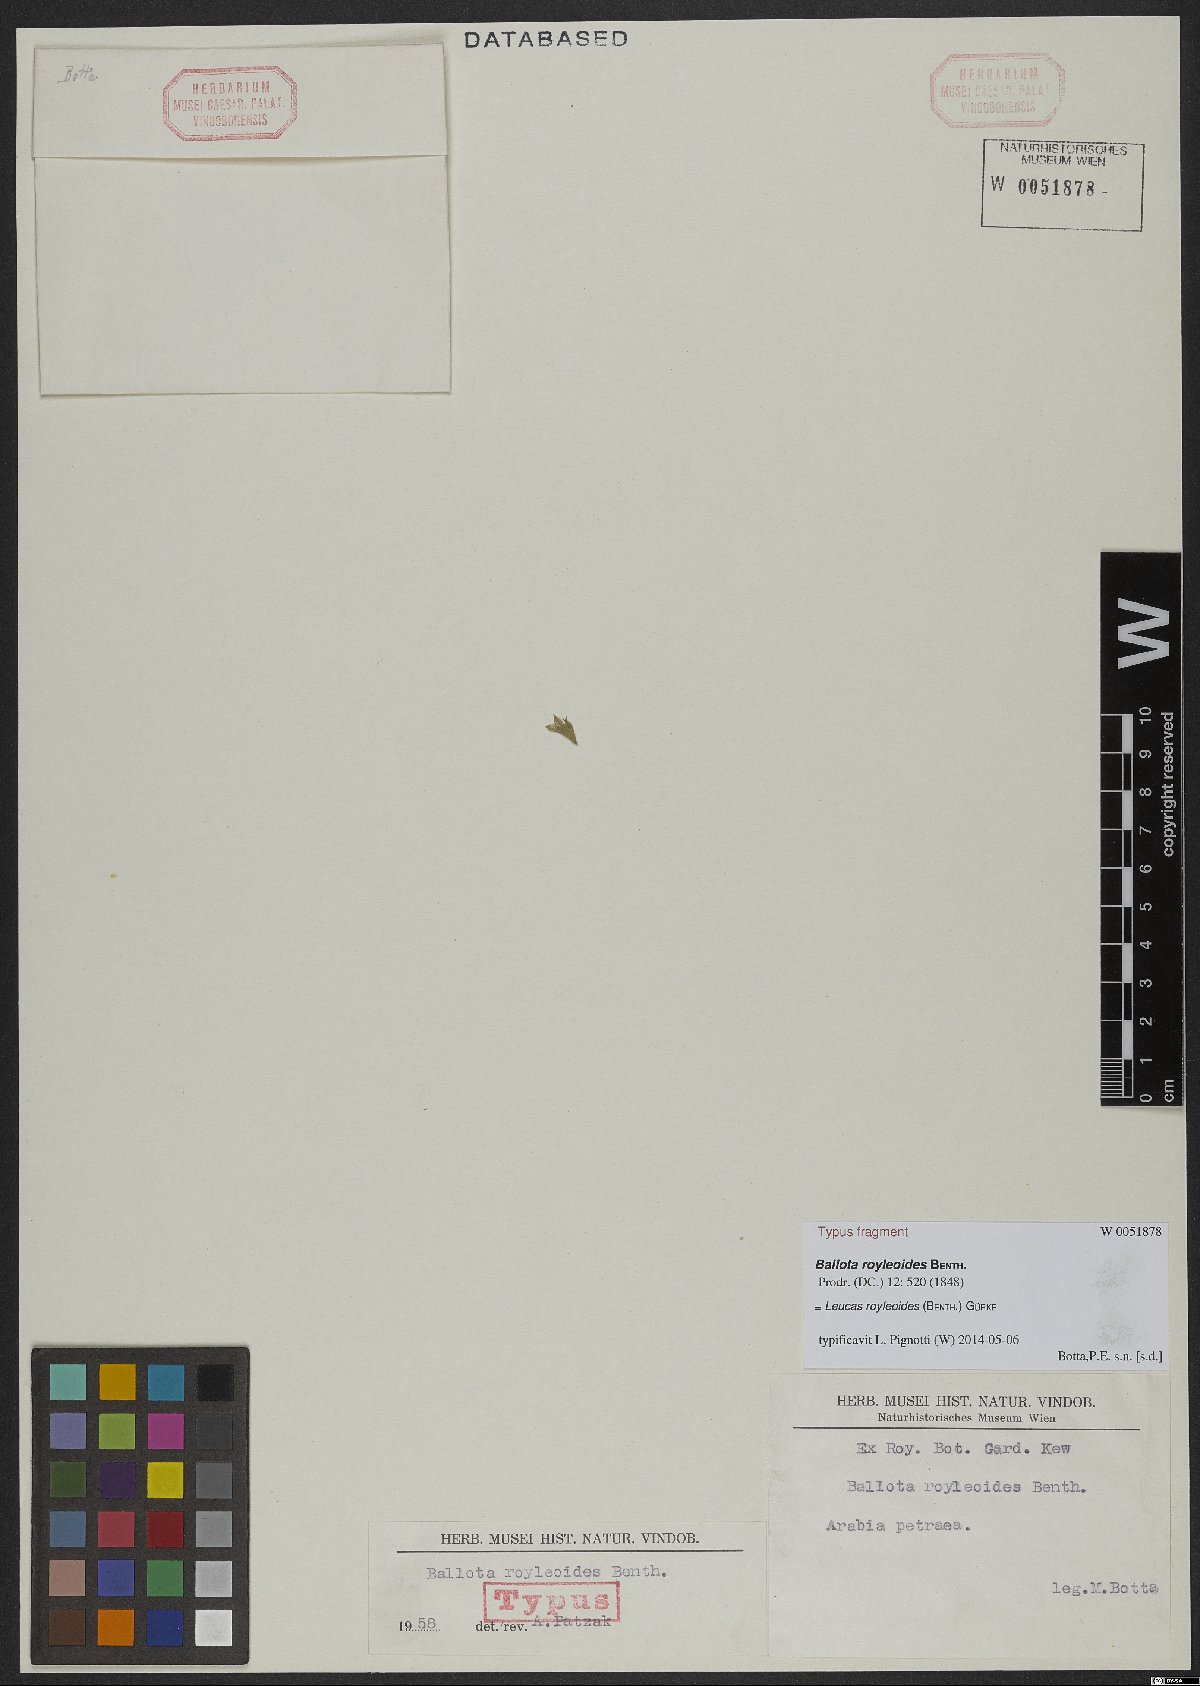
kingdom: Plantae
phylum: Tracheophyta
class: Magnoliopsida
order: Lamiales
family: Lamiaceae
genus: Leucas
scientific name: Leucas royleoides
